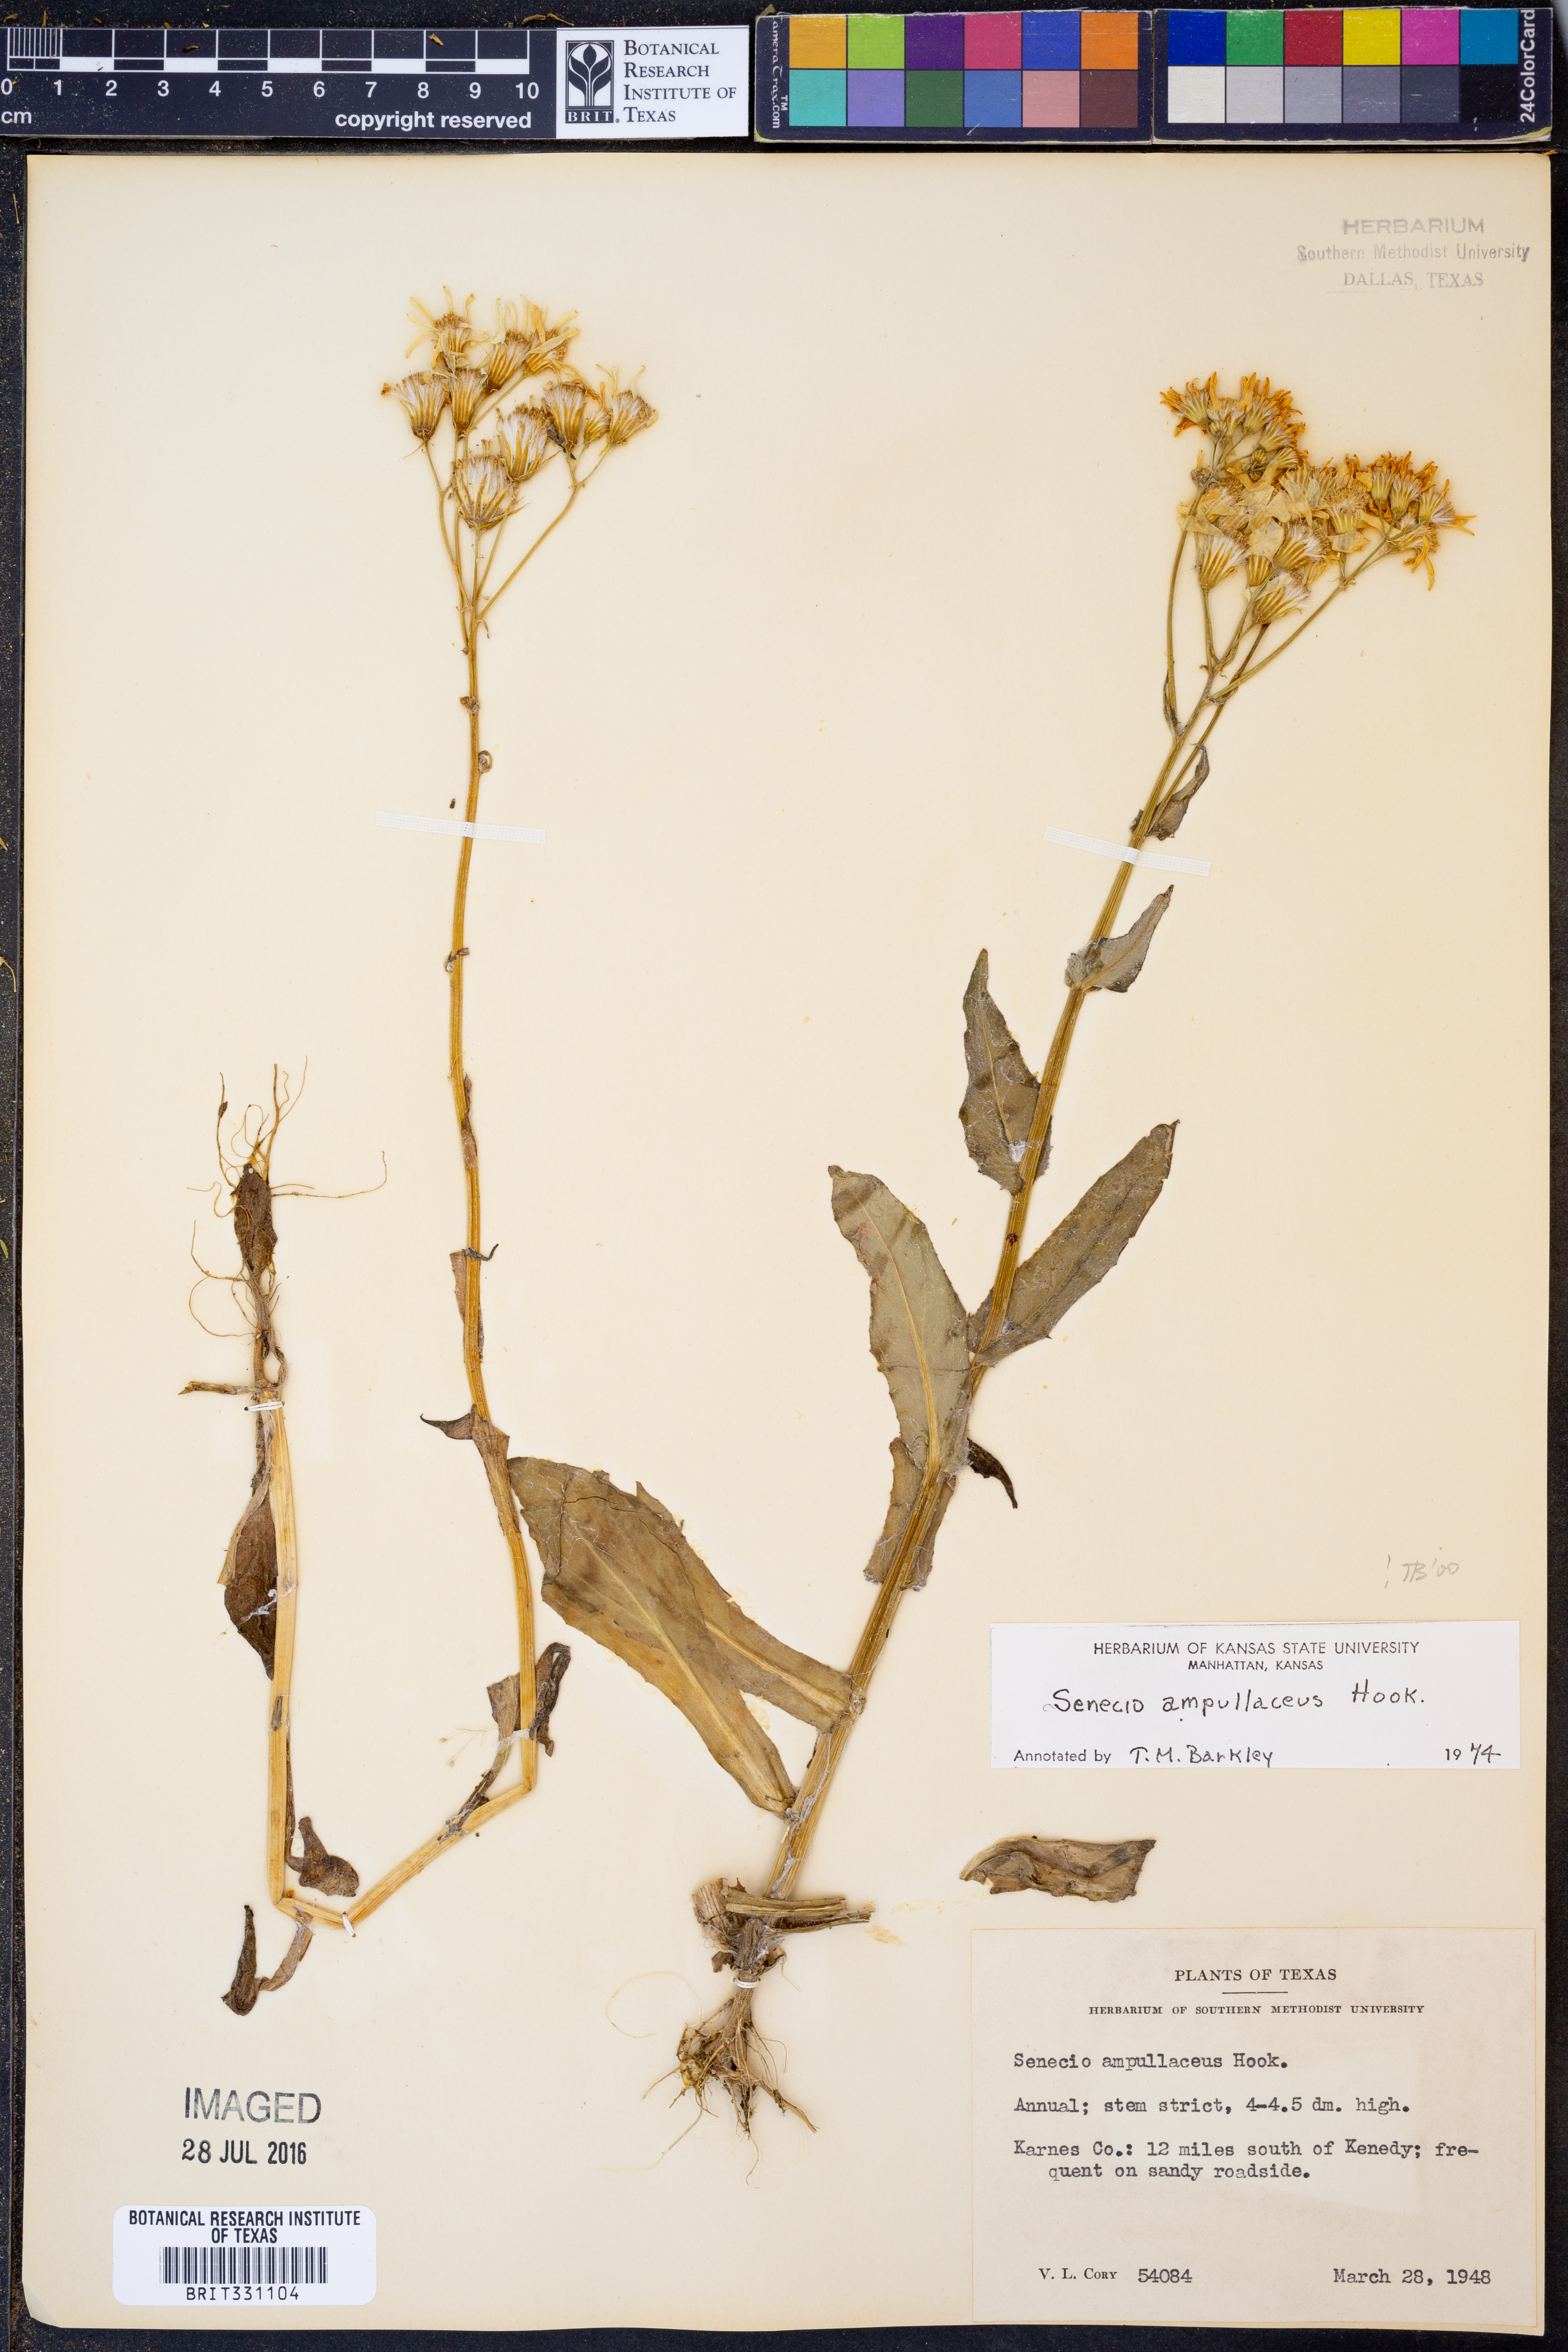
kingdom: Plantae
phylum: Tracheophyta
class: Magnoliopsida
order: Asterales
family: Asteraceae
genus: Senecio
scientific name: Senecio ampullaceus
